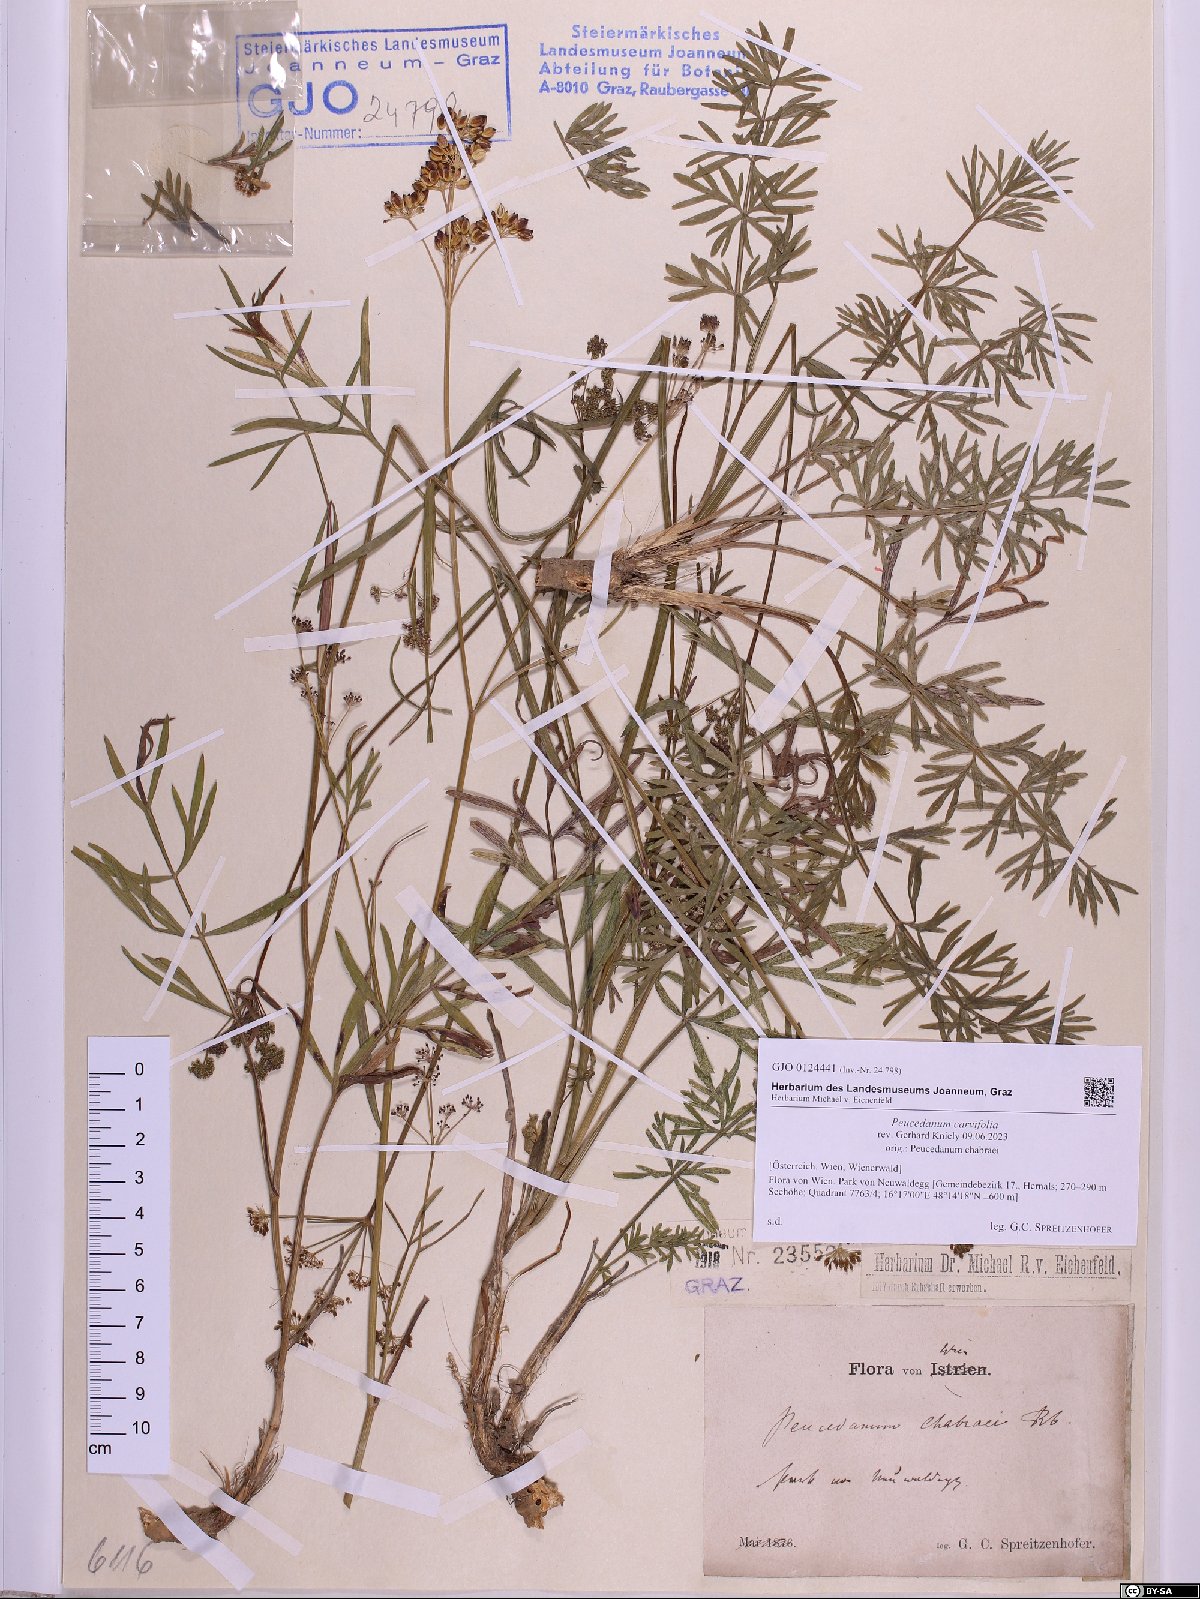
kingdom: Plantae
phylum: Tracheophyta
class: Magnoliopsida
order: Apiales
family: Apiaceae
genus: Dichoropetalum
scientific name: Dichoropetalum carvifolia
